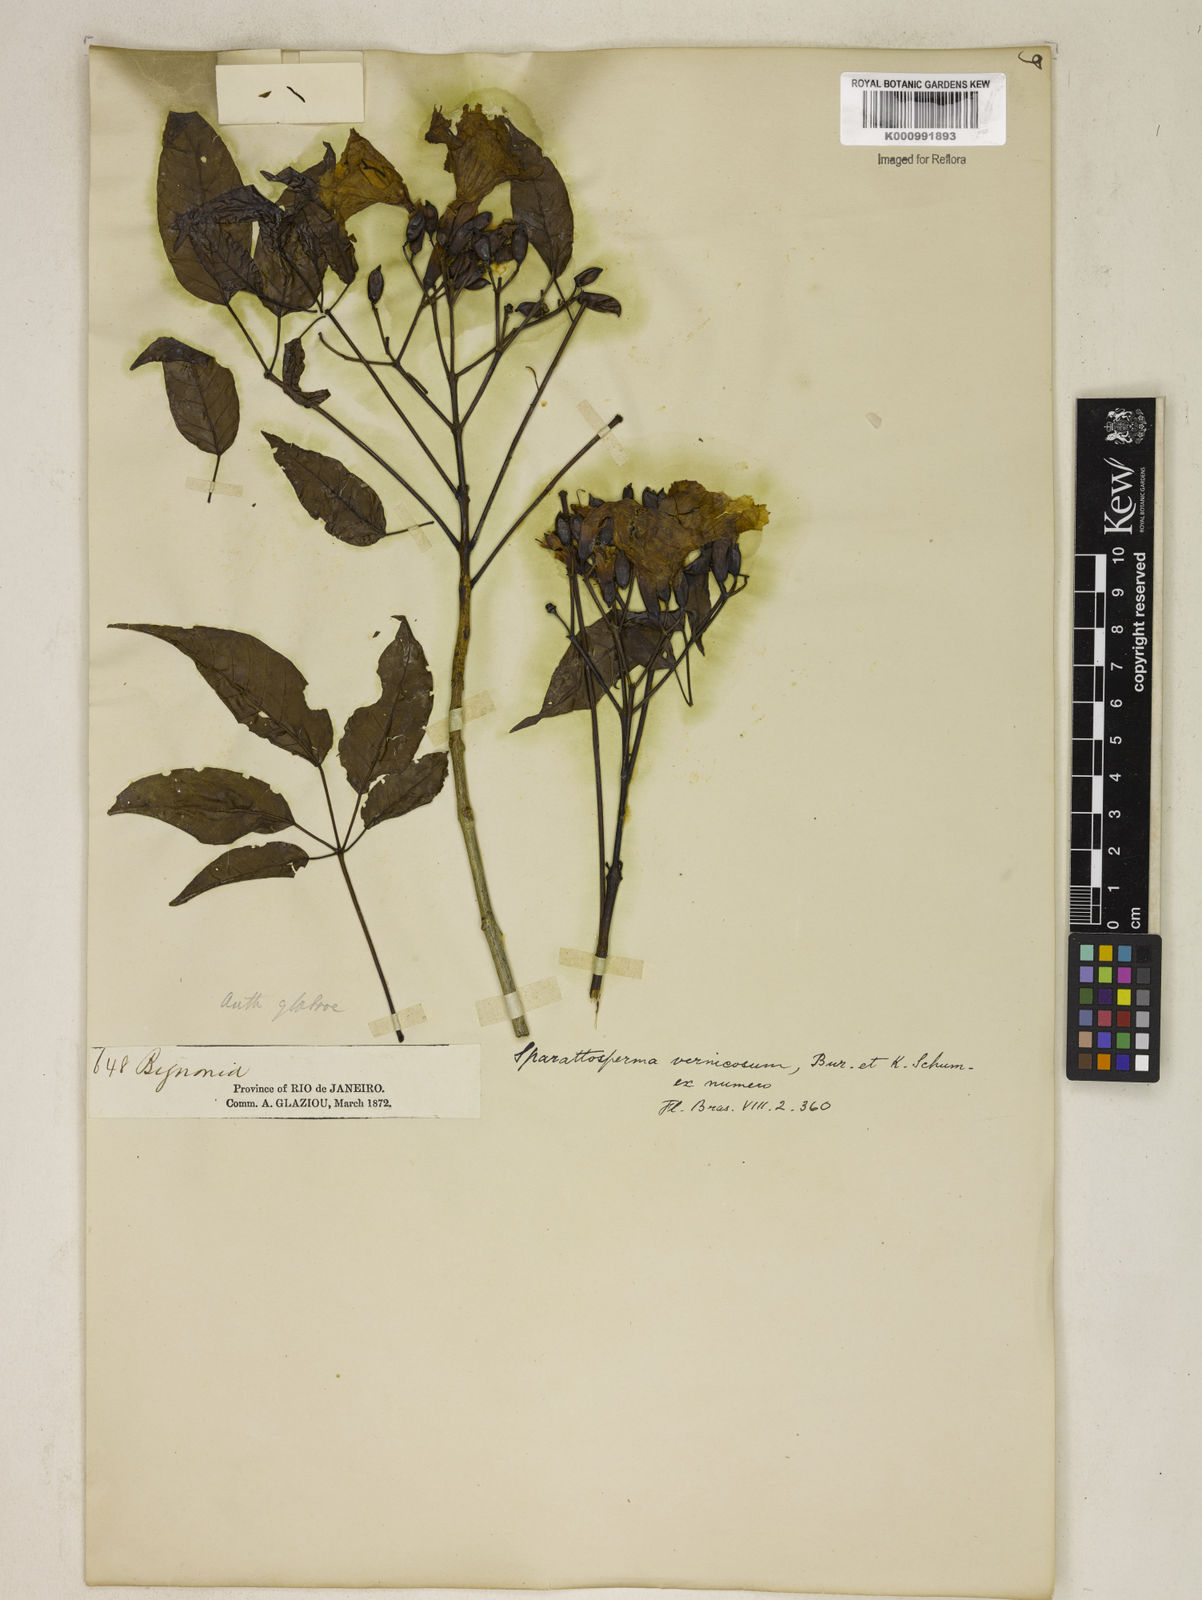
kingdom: Plantae
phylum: Tracheophyta
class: Magnoliopsida
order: Lamiales
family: Bignoniaceae
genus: Sparattosperma
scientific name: Sparattosperma leucanthum
